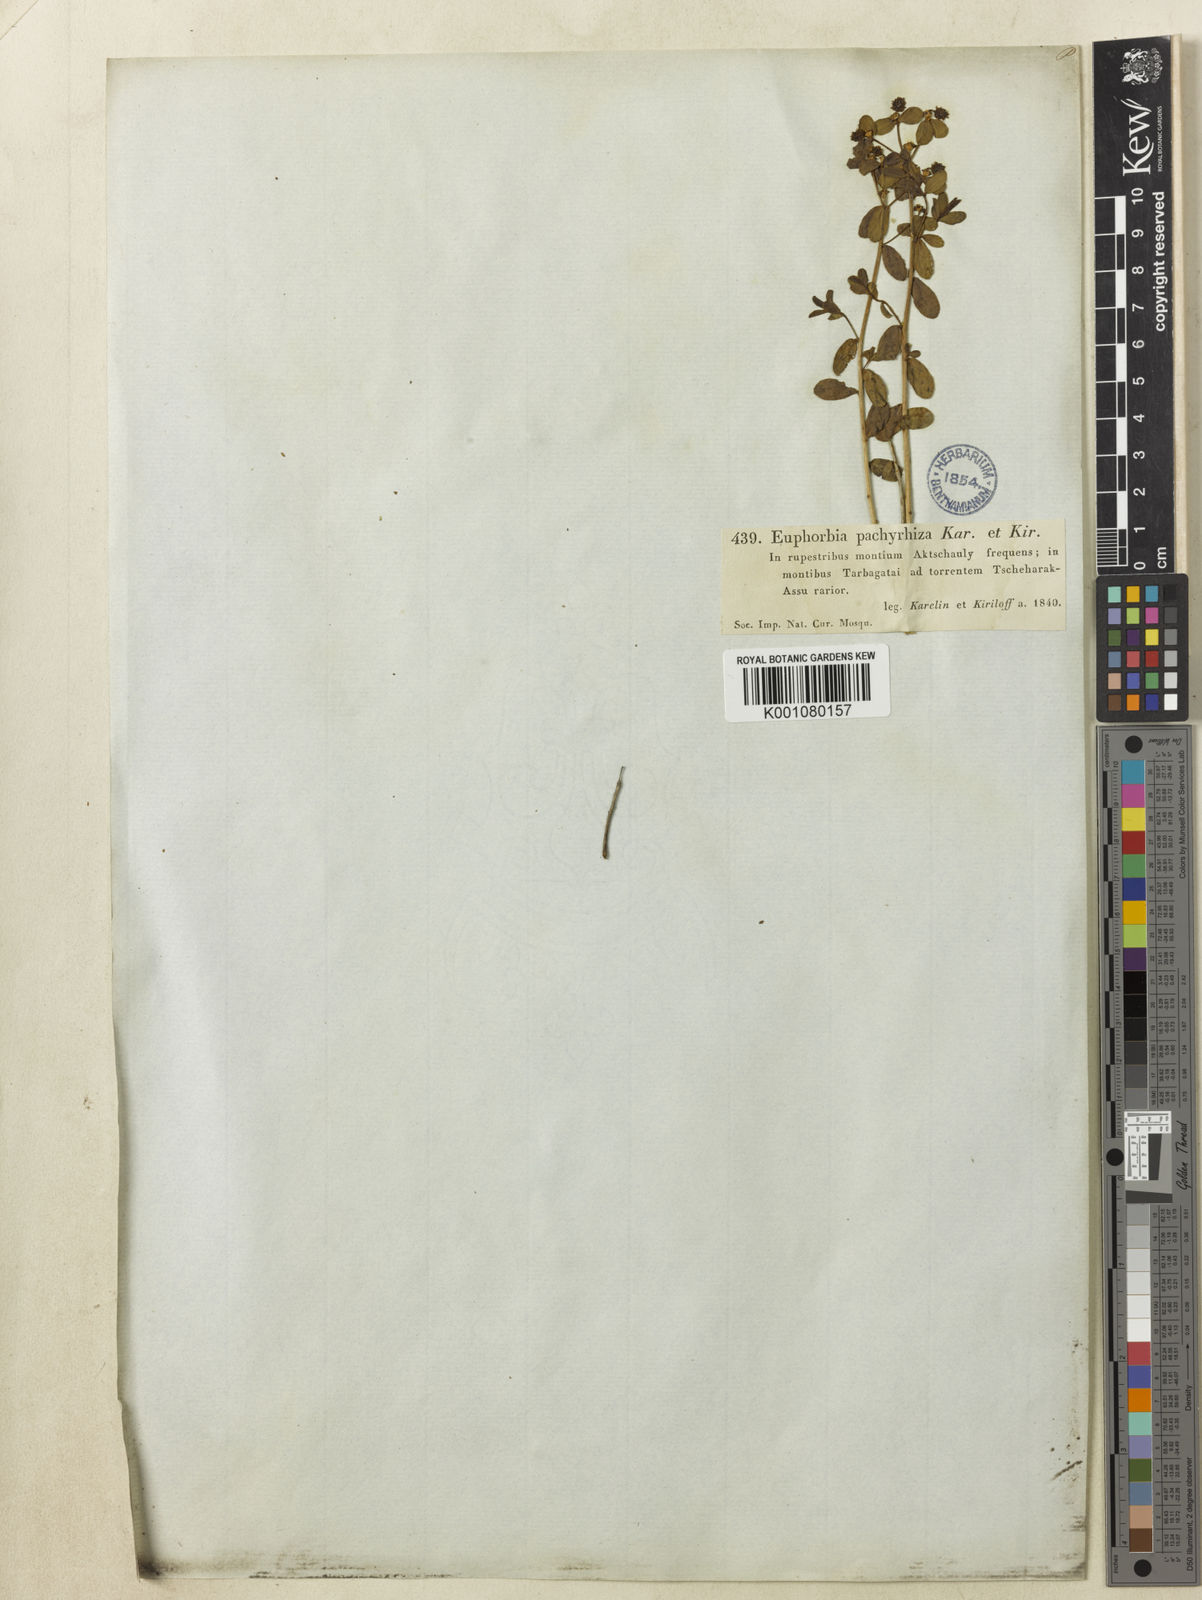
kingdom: Plantae
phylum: Tracheophyta
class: Magnoliopsida
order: Malpighiales
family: Euphorbiaceae
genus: Euphorbia
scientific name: Euphorbia pachyrrhiza
